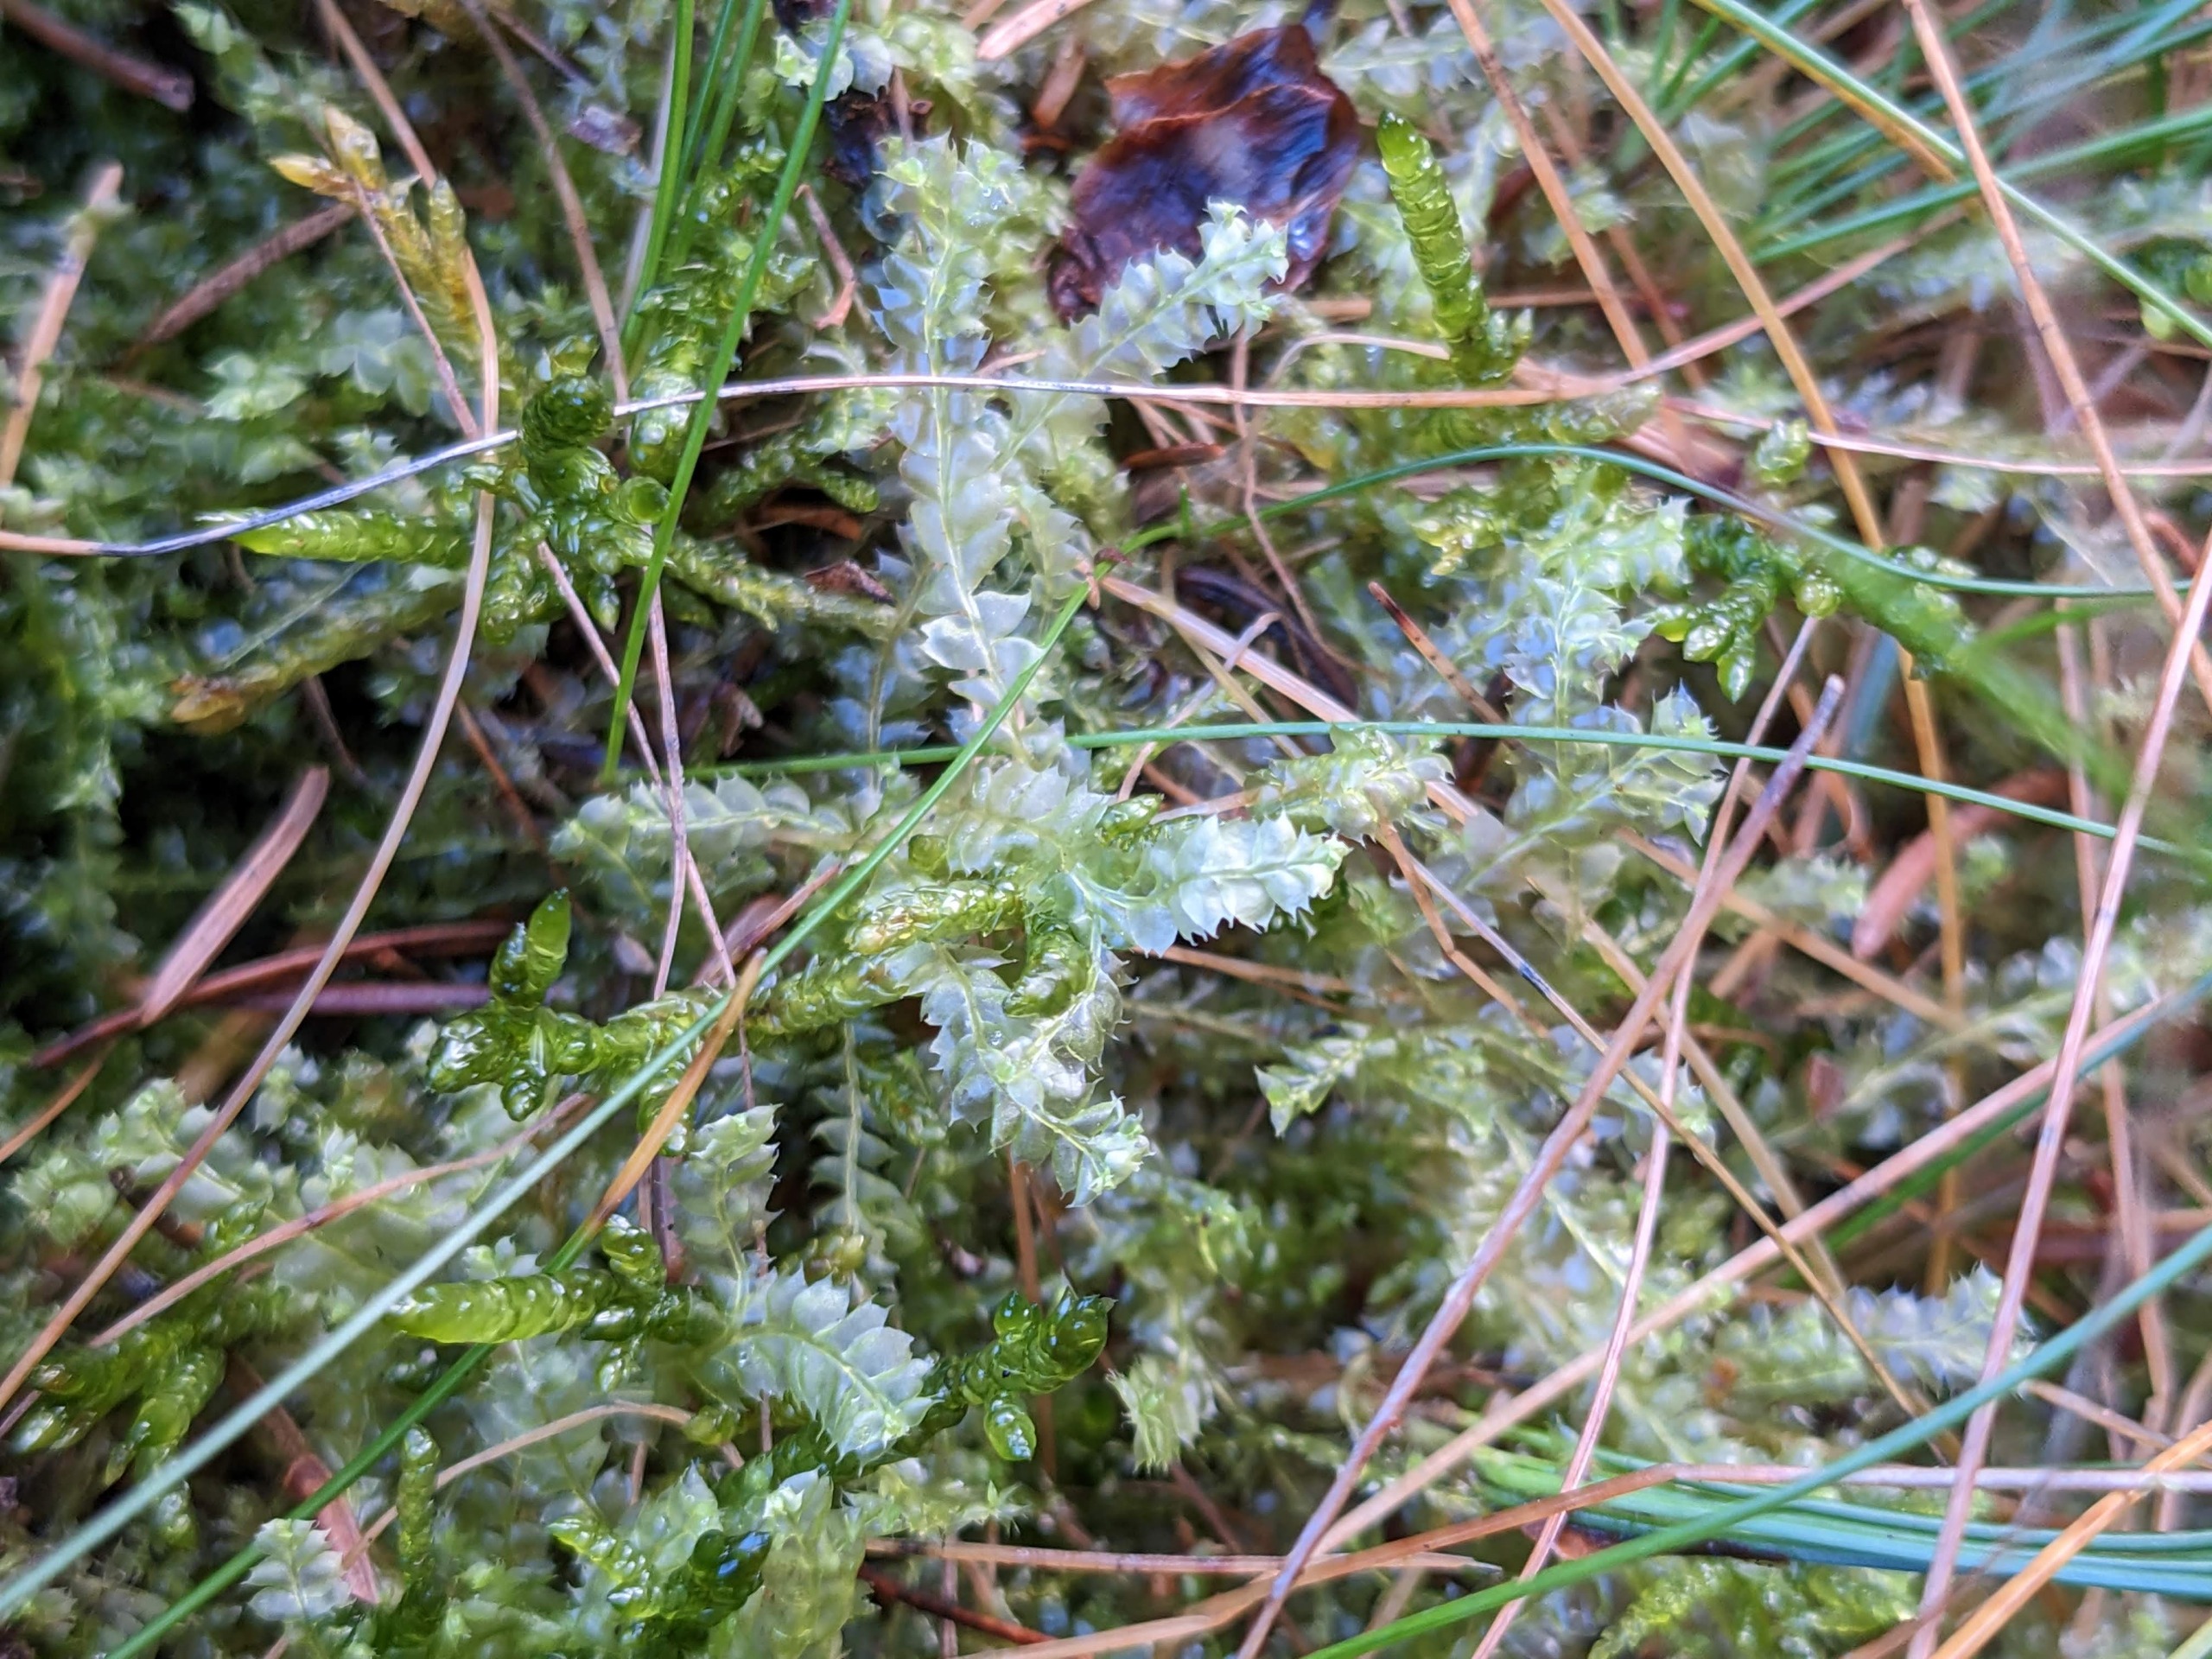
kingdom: Plantae
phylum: Marchantiophyta
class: Jungermanniopsida
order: Jungermanniales
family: Lophocoleaceae
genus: Lophocolea
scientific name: Lophocolea bidentata
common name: Sylspidset kamsvøb
